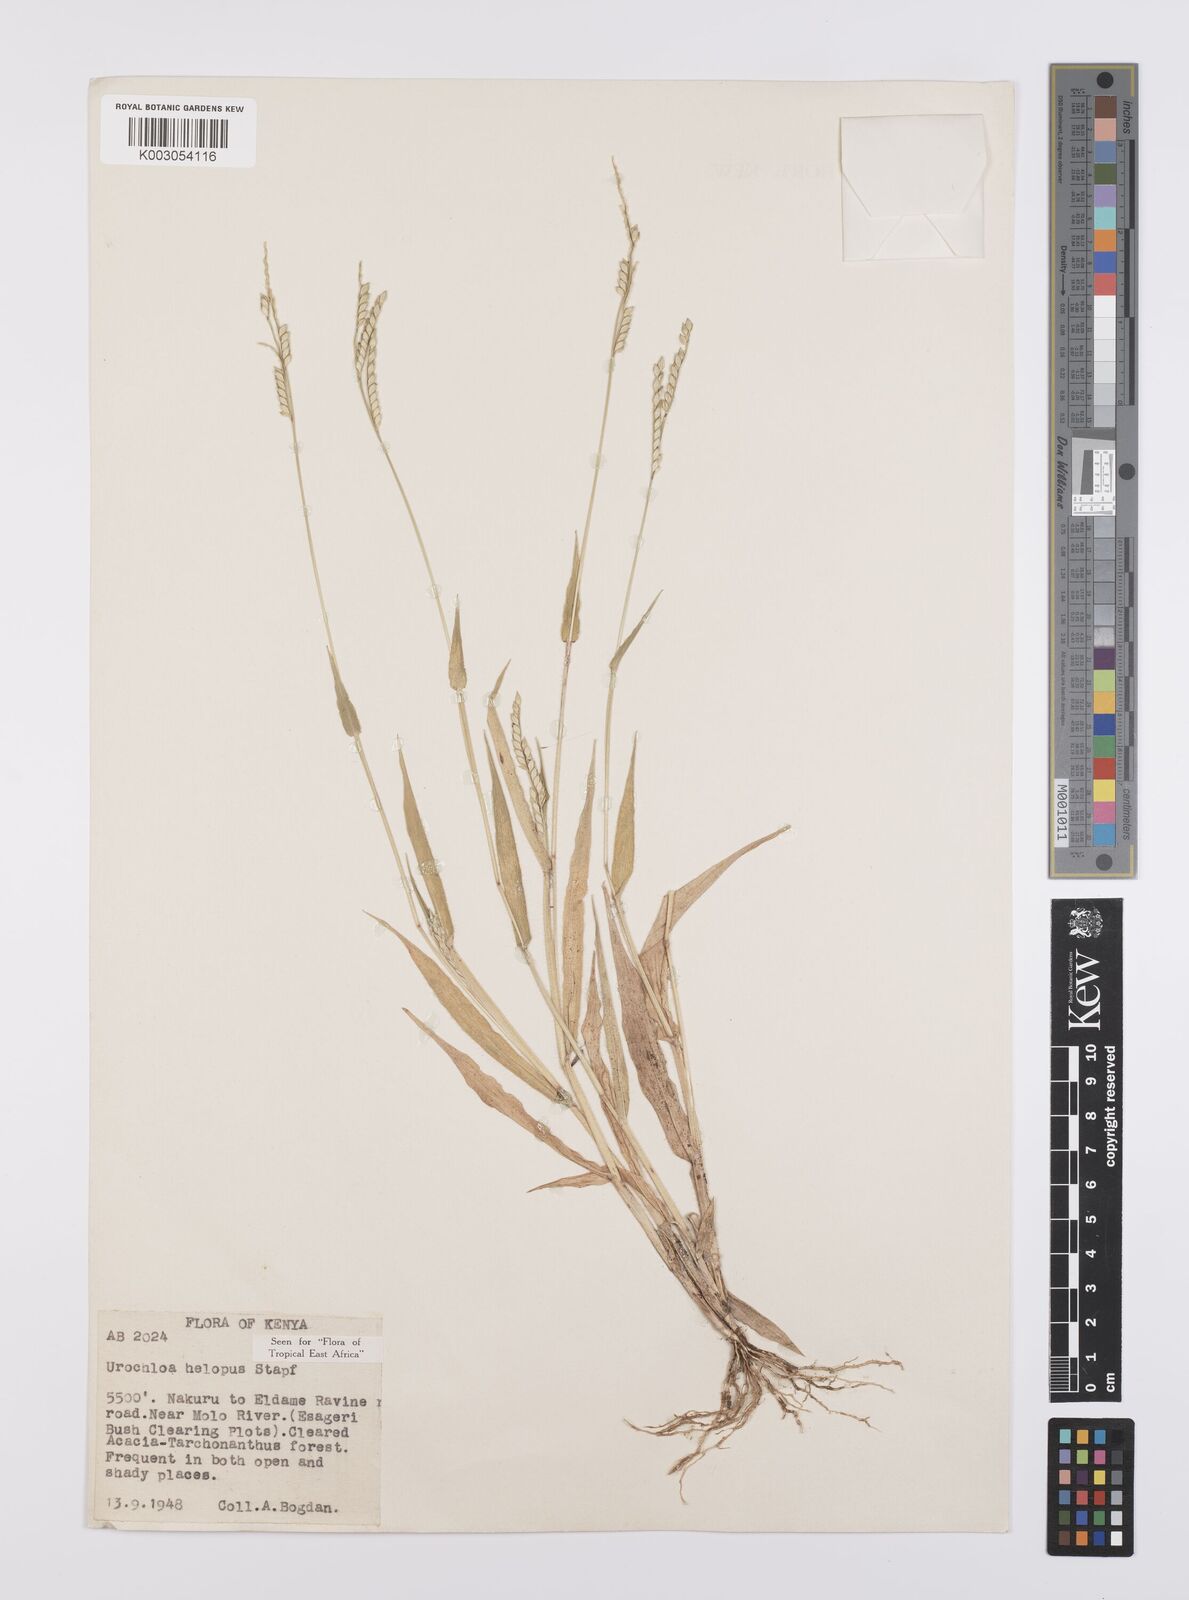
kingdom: Plantae
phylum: Tracheophyta
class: Liliopsida
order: Poales
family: Poaceae
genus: Urochloa
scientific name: Urochloa panicoides
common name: Sharp-flowered signal-grass
